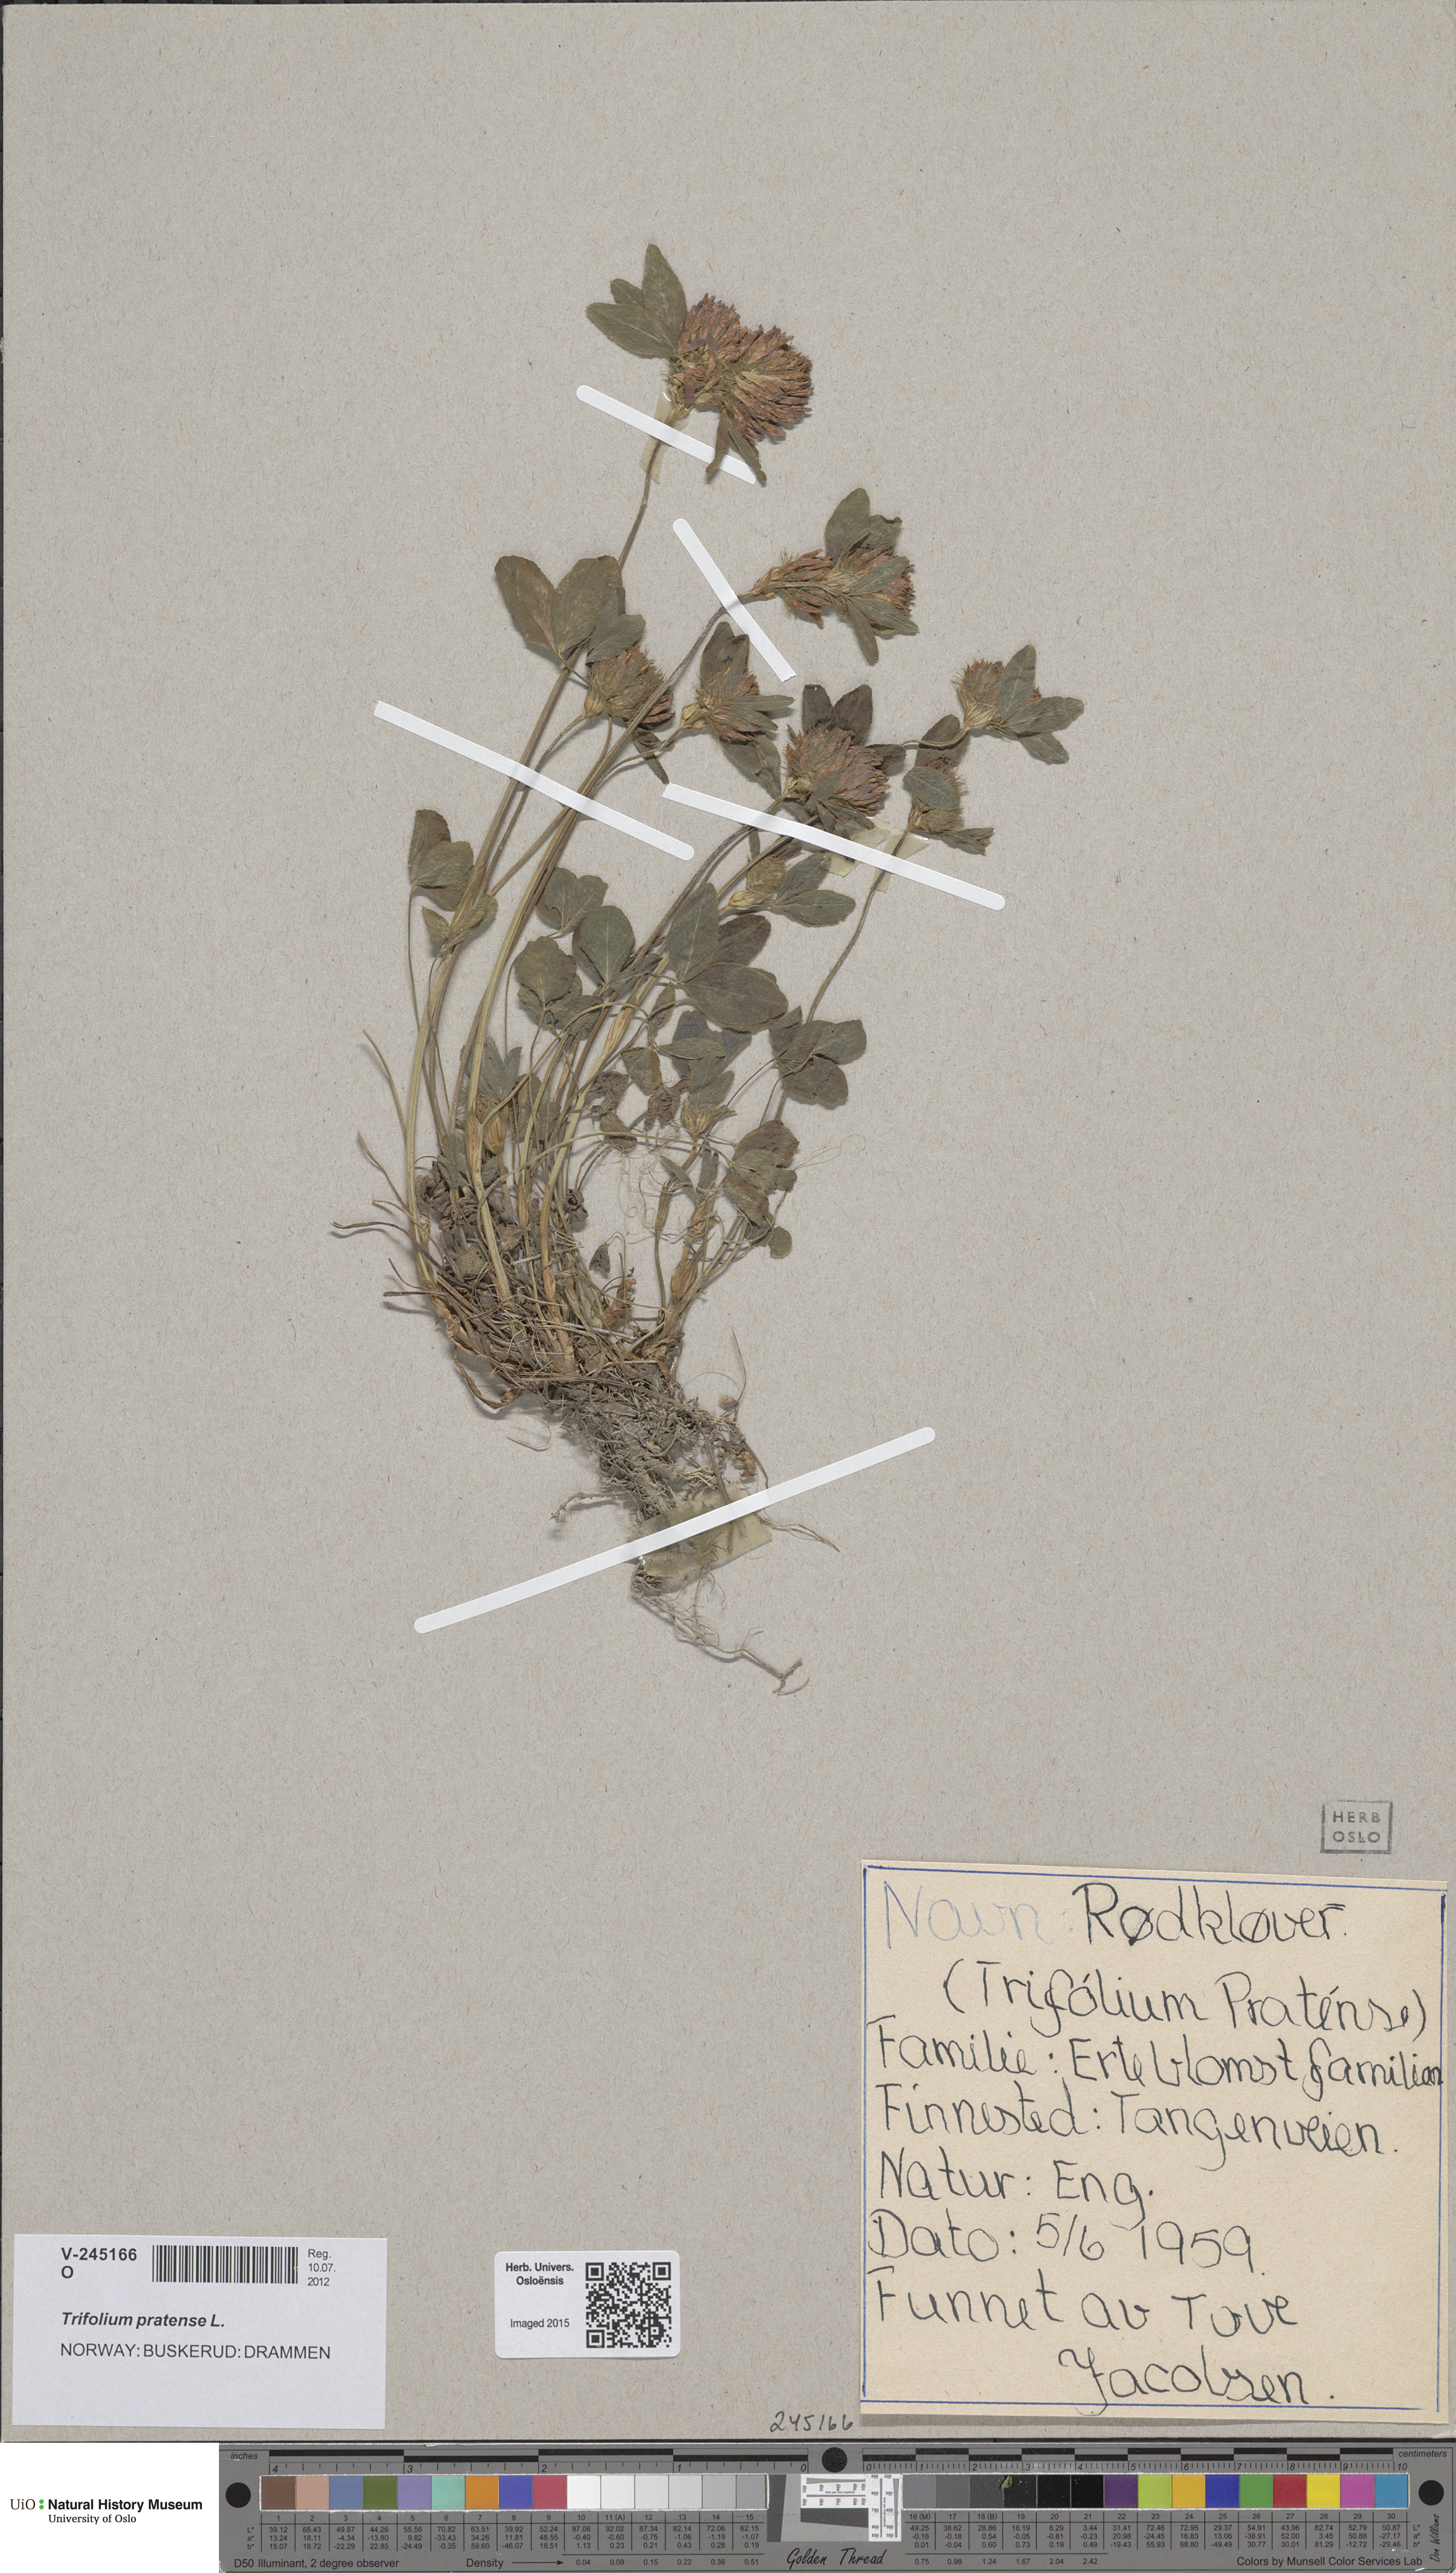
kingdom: Plantae
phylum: Tracheophyta
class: Magnoliopsida
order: Fabales
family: Fabaceae
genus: Trifolium
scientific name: Trifolium pratense
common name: Red clover
